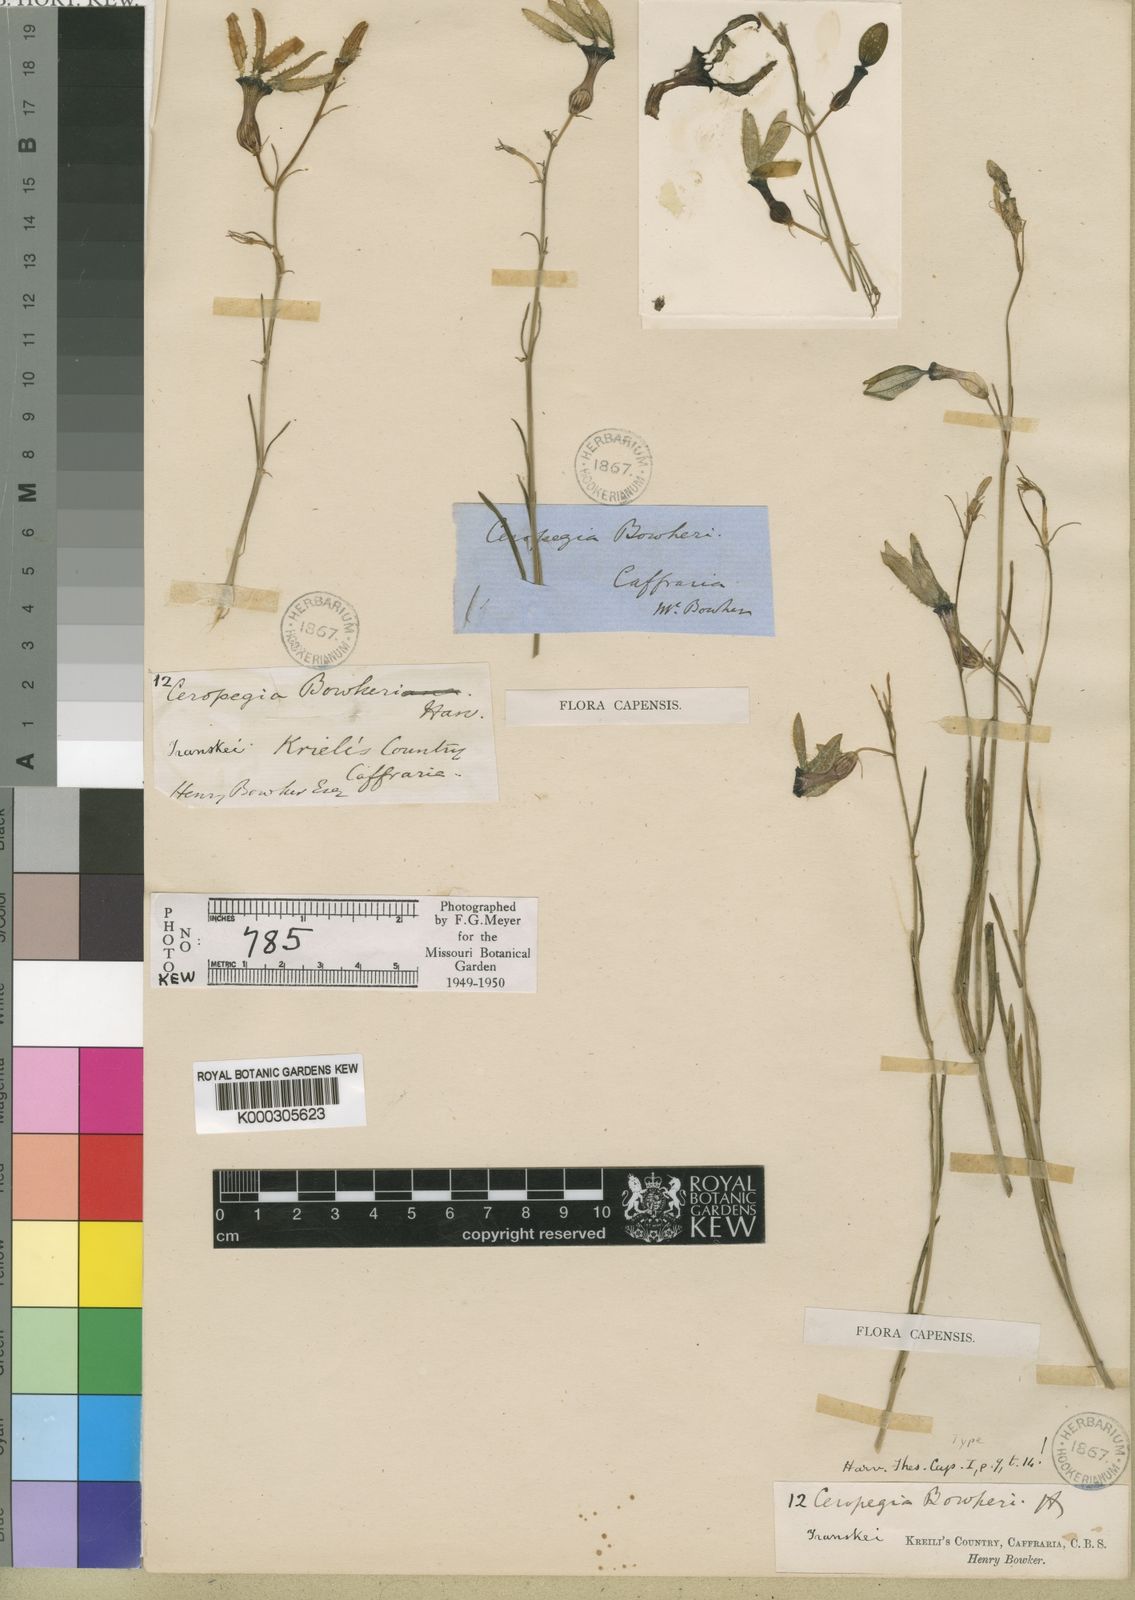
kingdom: Plantae
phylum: Tracheophyta
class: Magnoliopsida
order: Gentianales
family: Apocynaceae
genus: Ceropegia
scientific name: Ceropegia bowkeri
